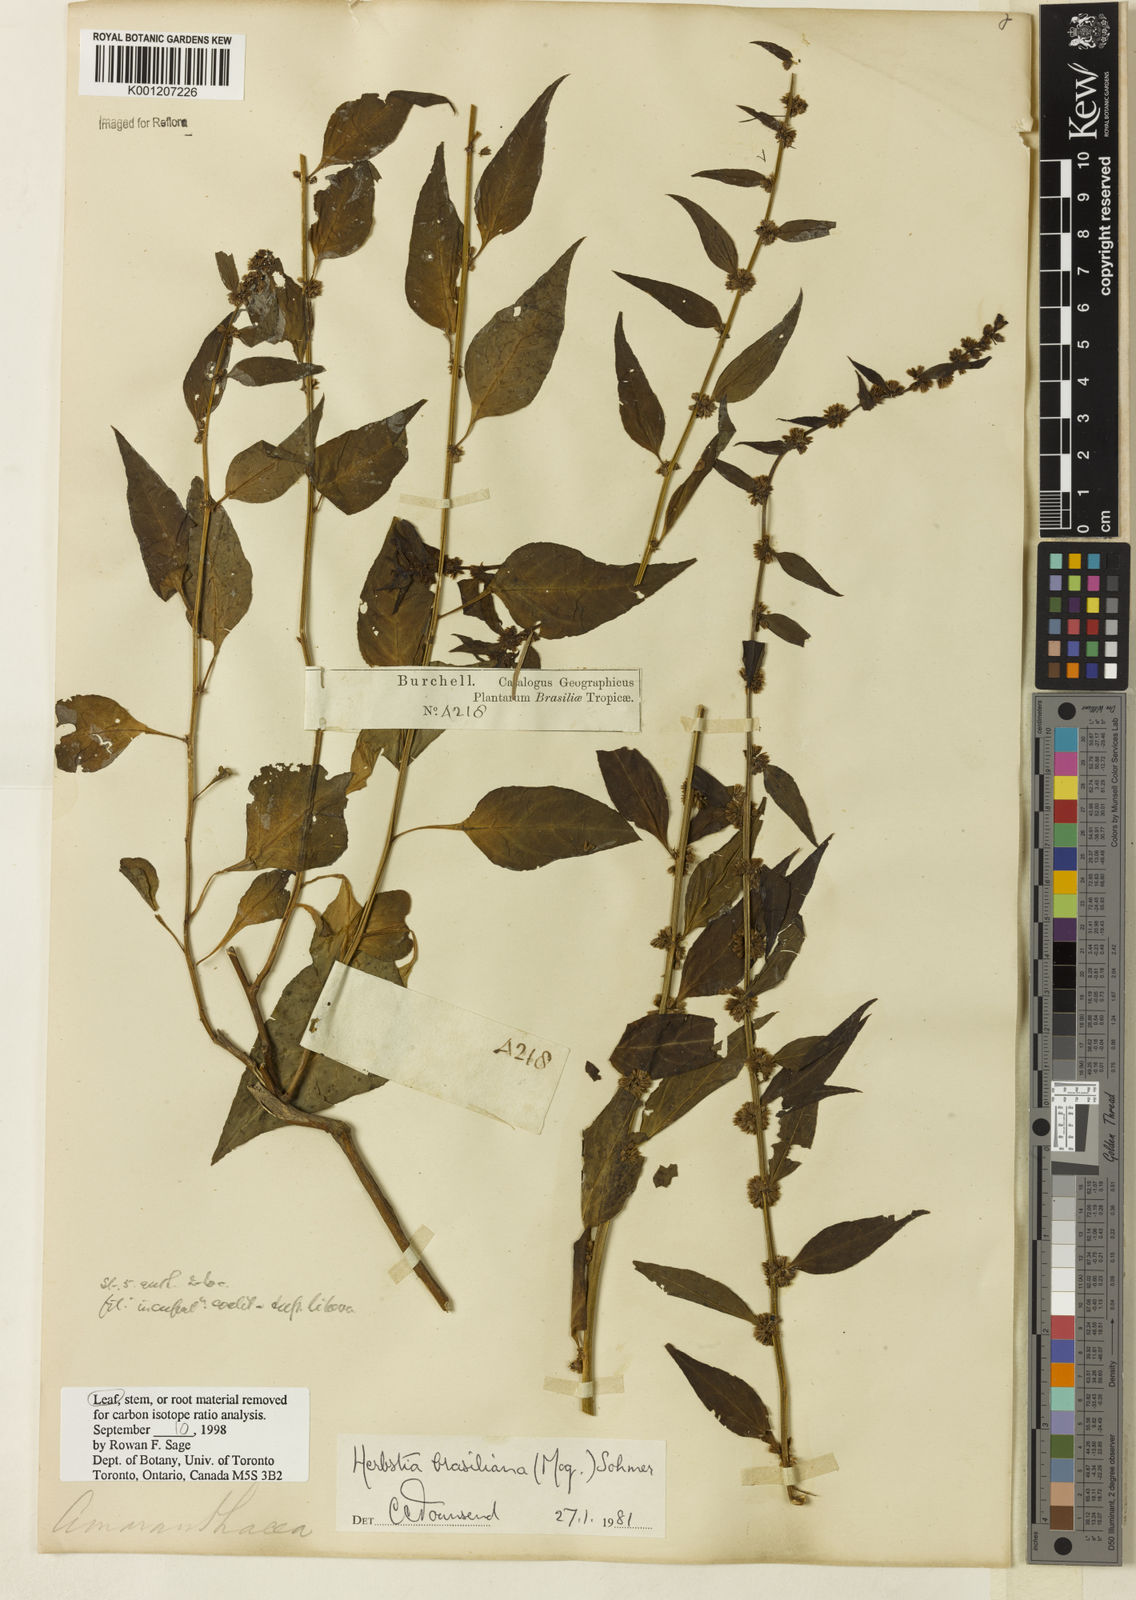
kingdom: Plantae
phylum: Tracheophyta
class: Magnoliopsida
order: Caryophyllales
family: Amaranthaceae
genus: Herbstia
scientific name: Herbstia brasiliana
